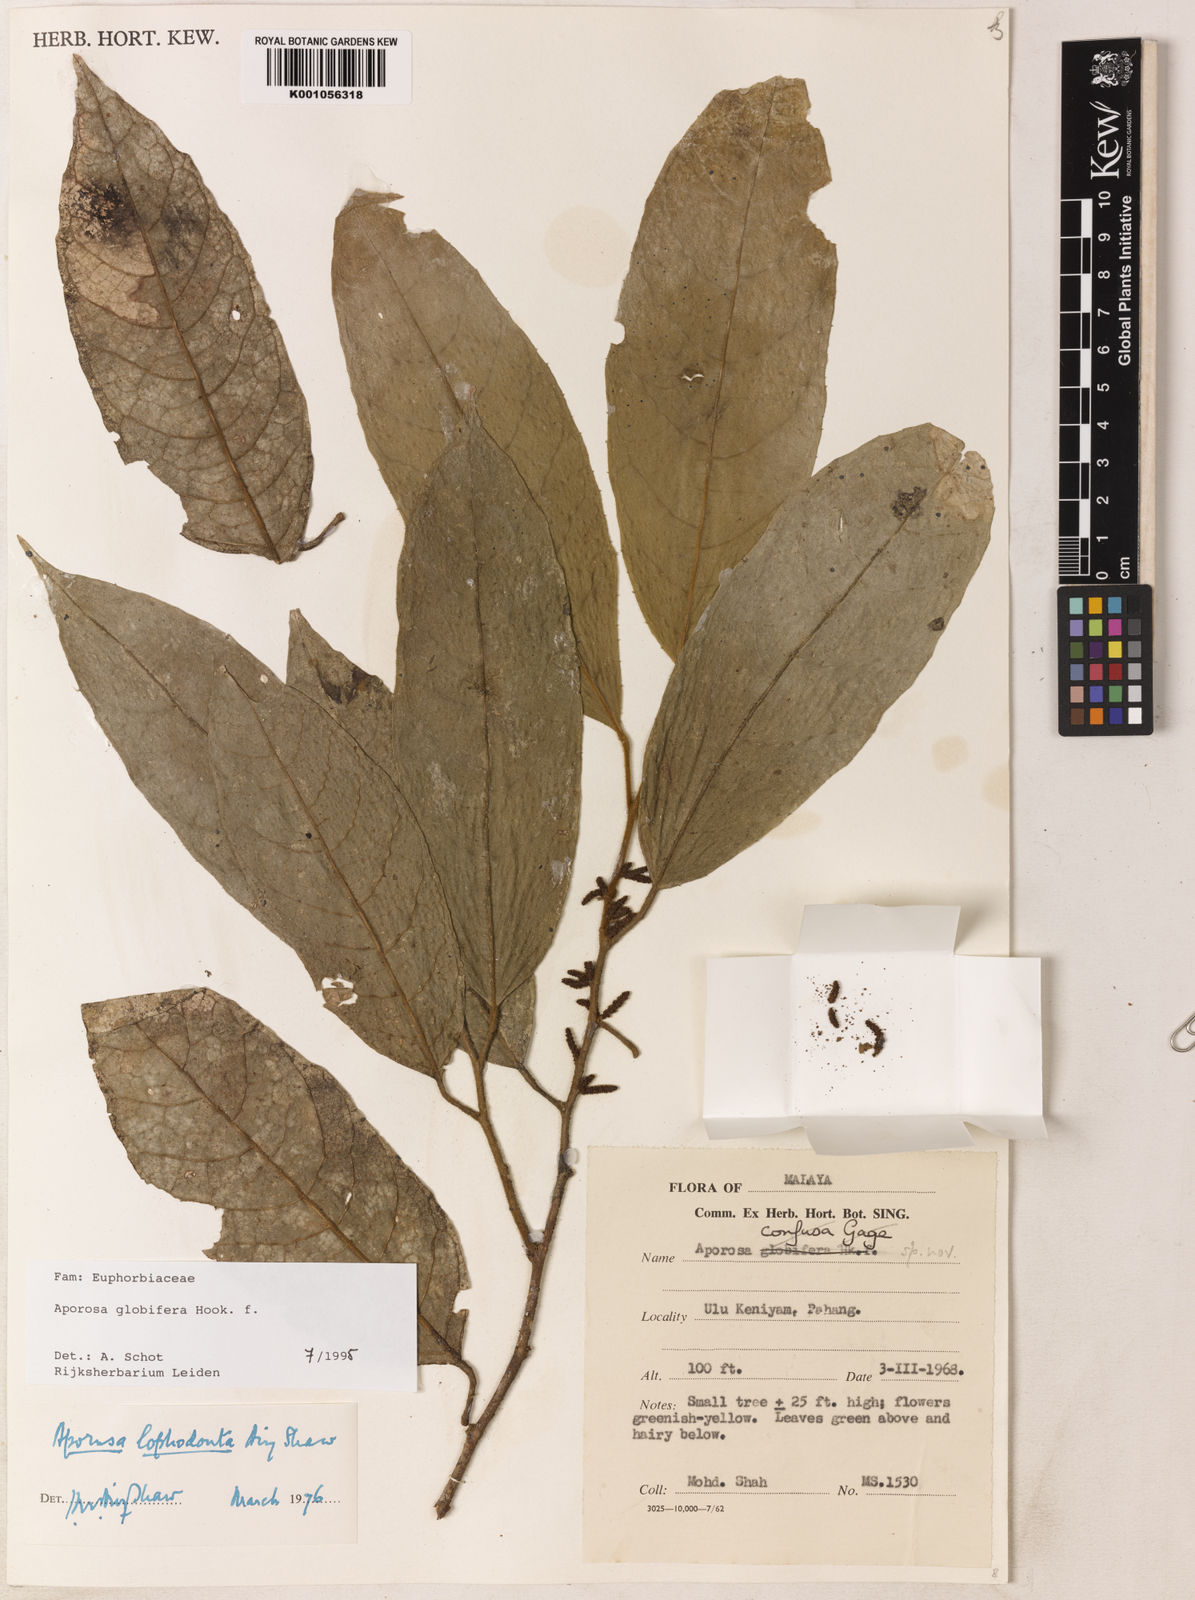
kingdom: Plantae
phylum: Tracheophyta
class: Magnoliopsida
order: Malpighiales
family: Phyllanthaceae
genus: Aporosa
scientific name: Aporosa globifera
